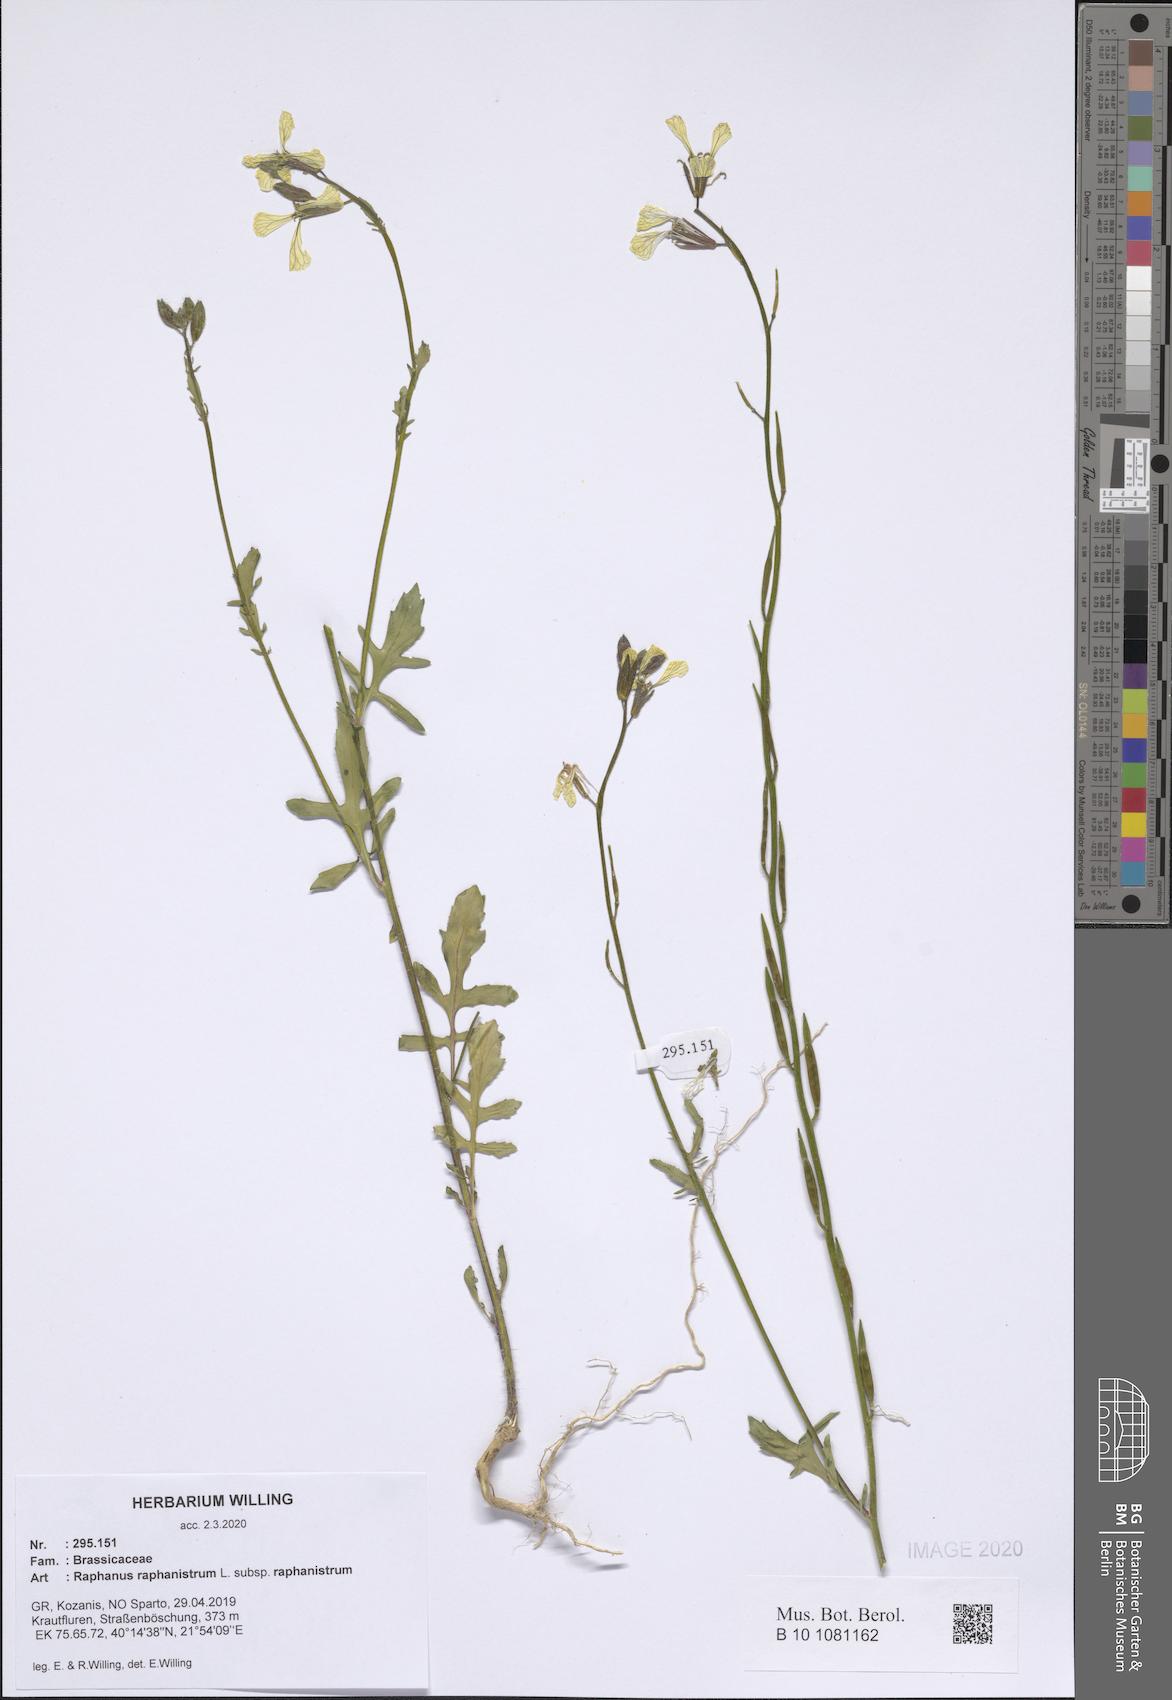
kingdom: Plantae
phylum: Tracheophyta
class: Magnoliopsida
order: Brassicales
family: Brassicaceae
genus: Raphanus
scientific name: Raphanus raphanistrum
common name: Wild radish
